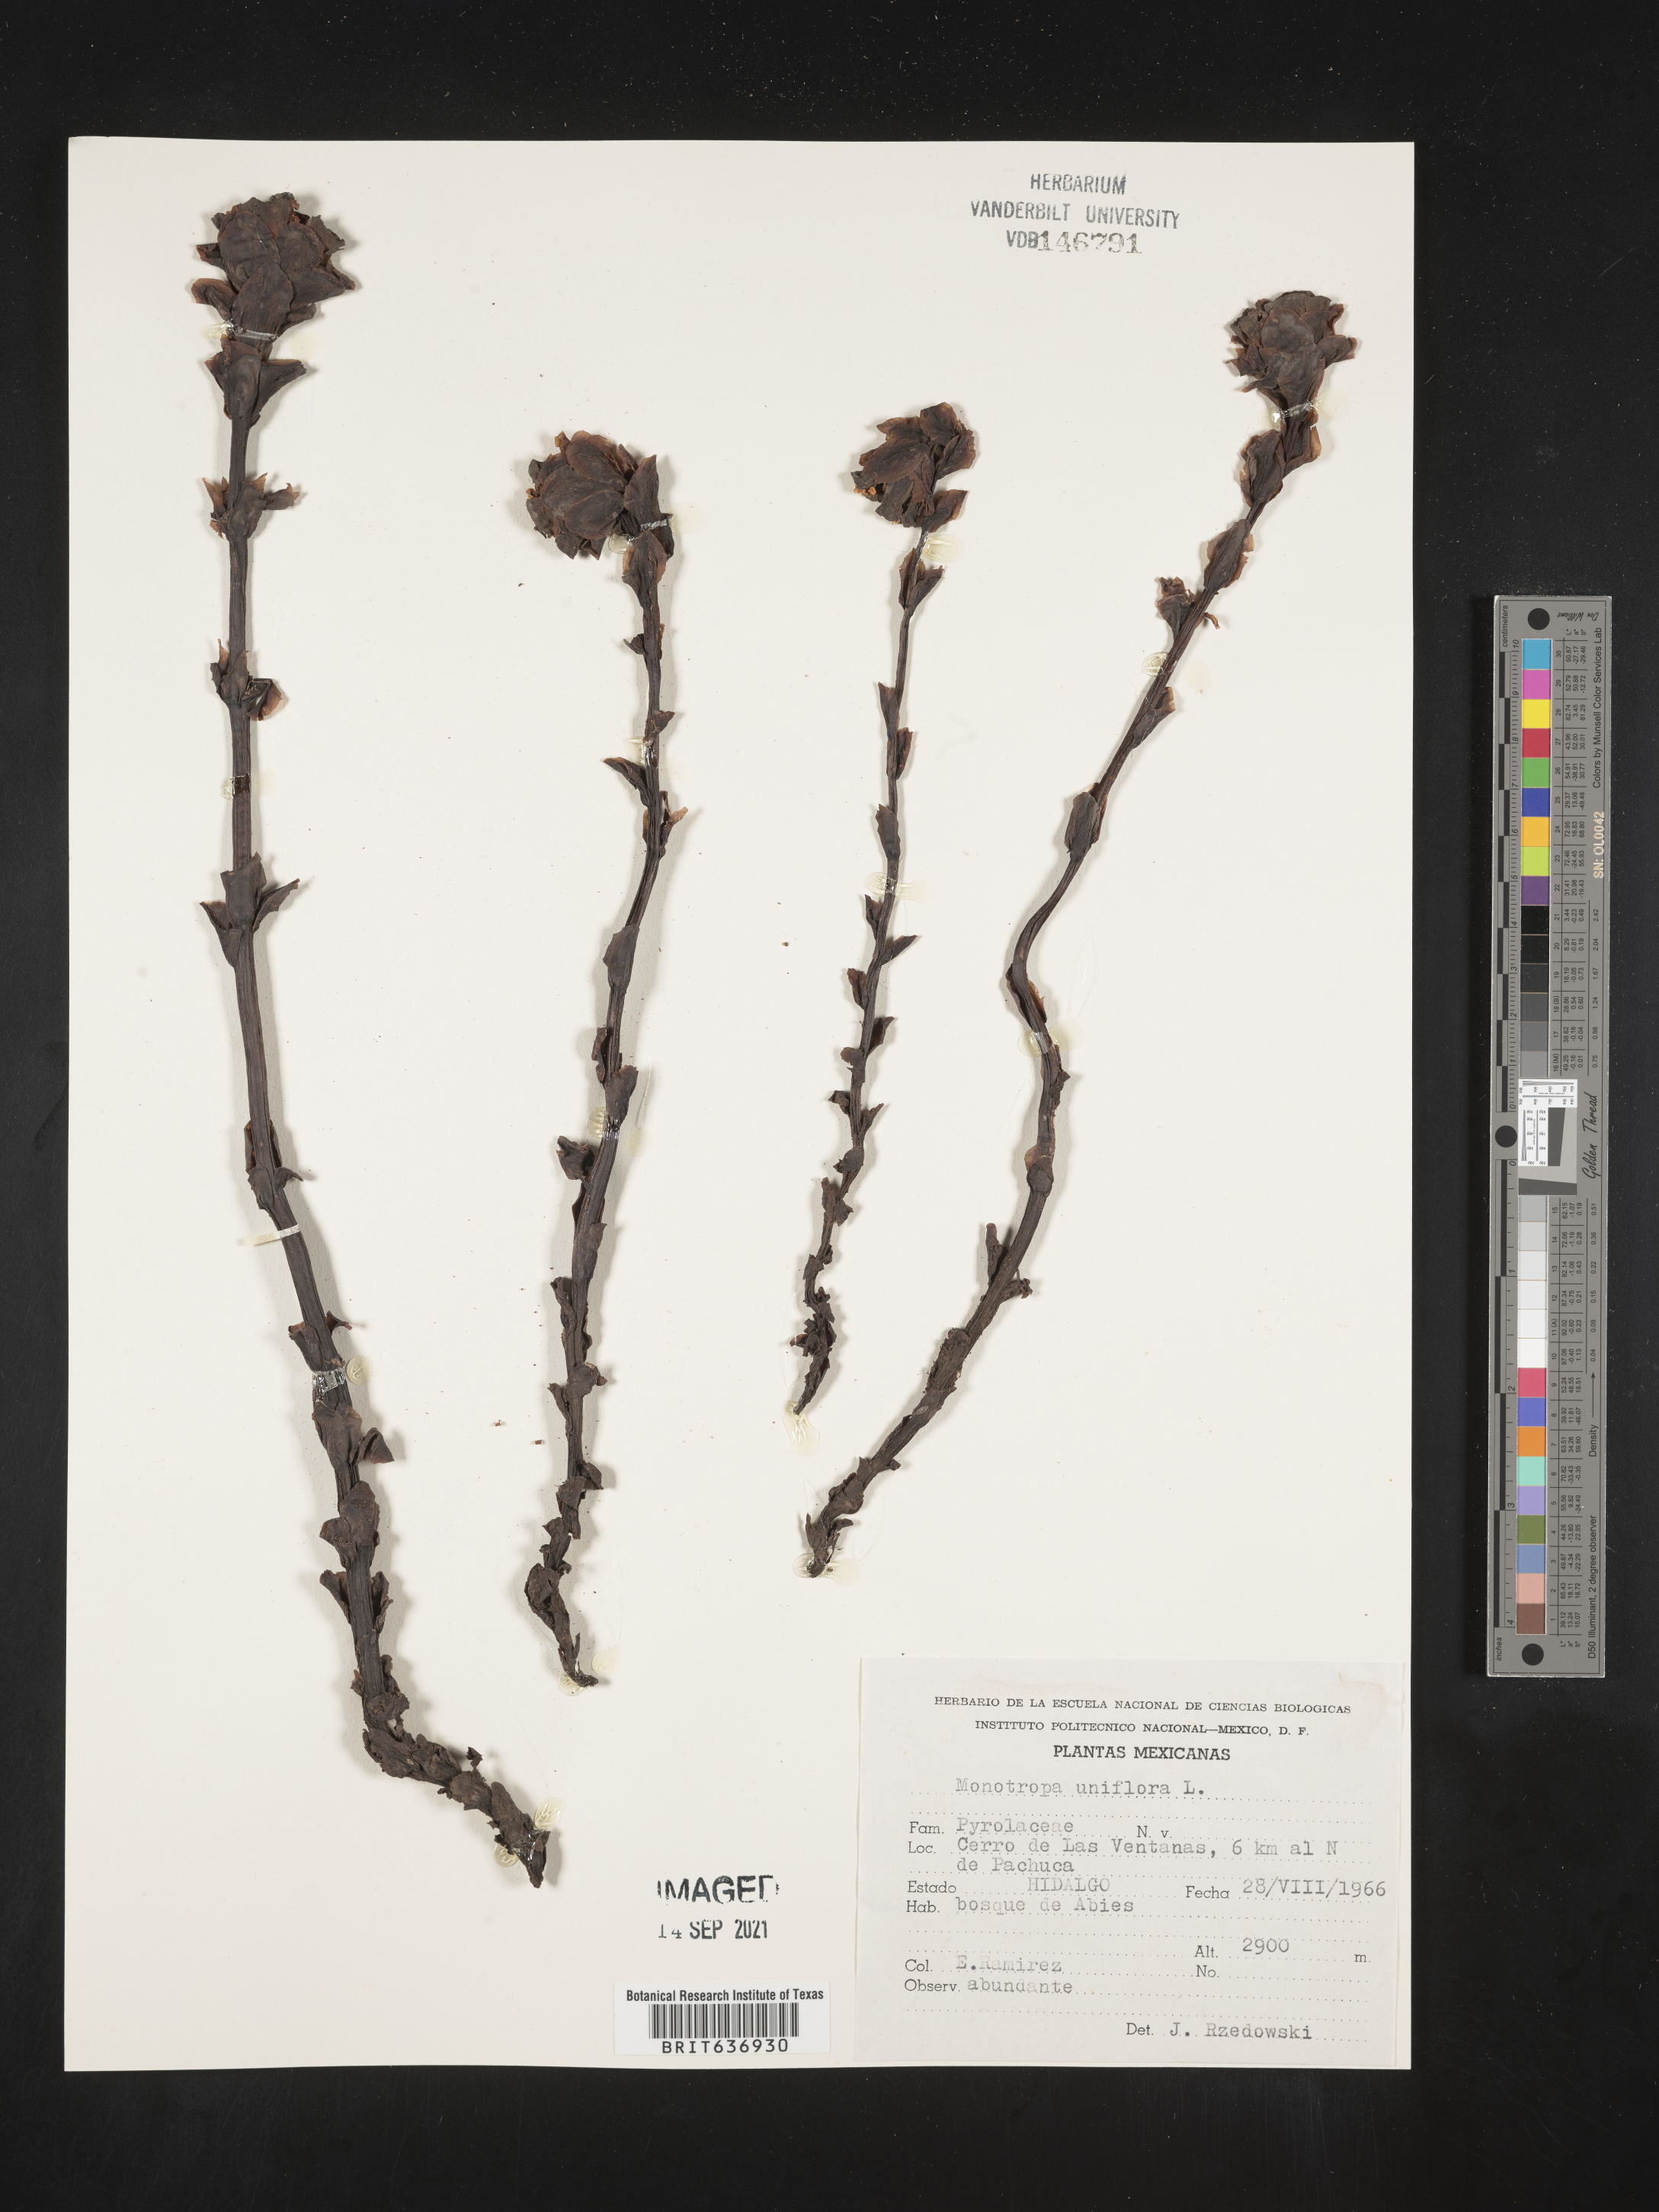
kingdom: Plantae
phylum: Tracheophyta
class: Magnoliopsida
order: Ericales
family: Ericaceae
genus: Monotropa
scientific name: Monotropa
